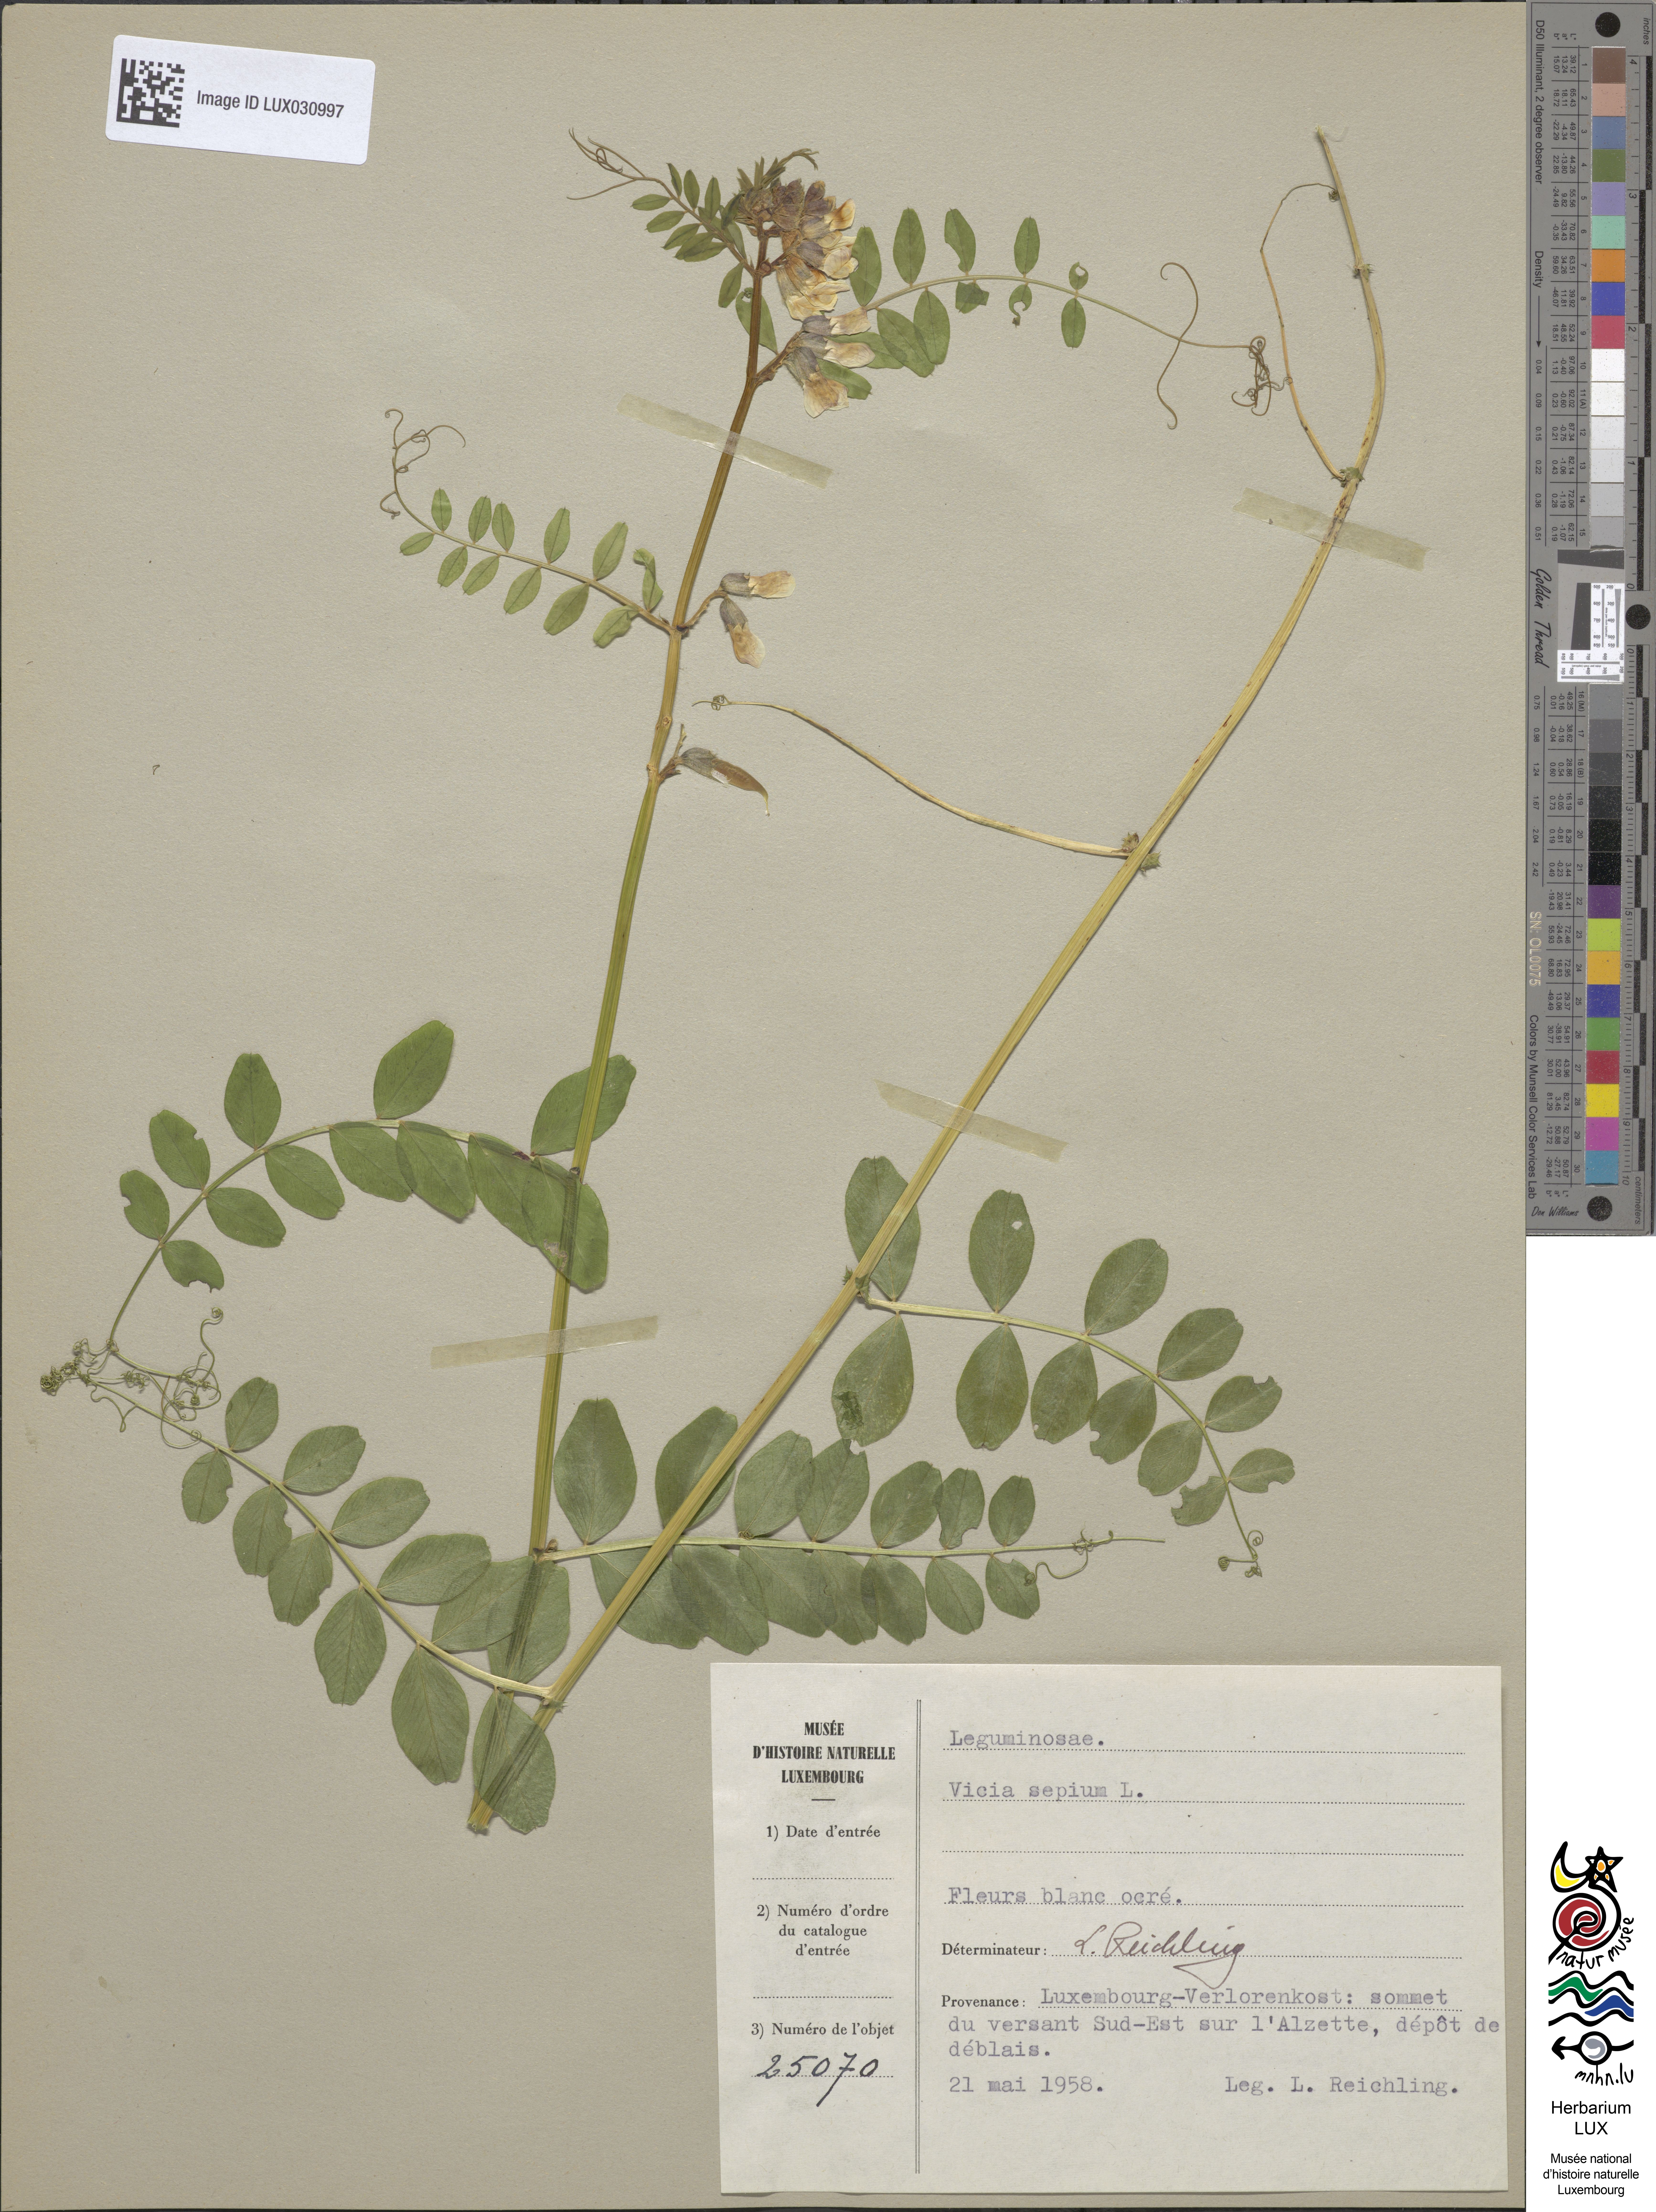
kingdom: Plantae
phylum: Tracheophyta
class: Magnoliopsida
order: Fabales
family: Fabaceae
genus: Vicia
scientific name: Vicia sepium
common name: Bush vetch
